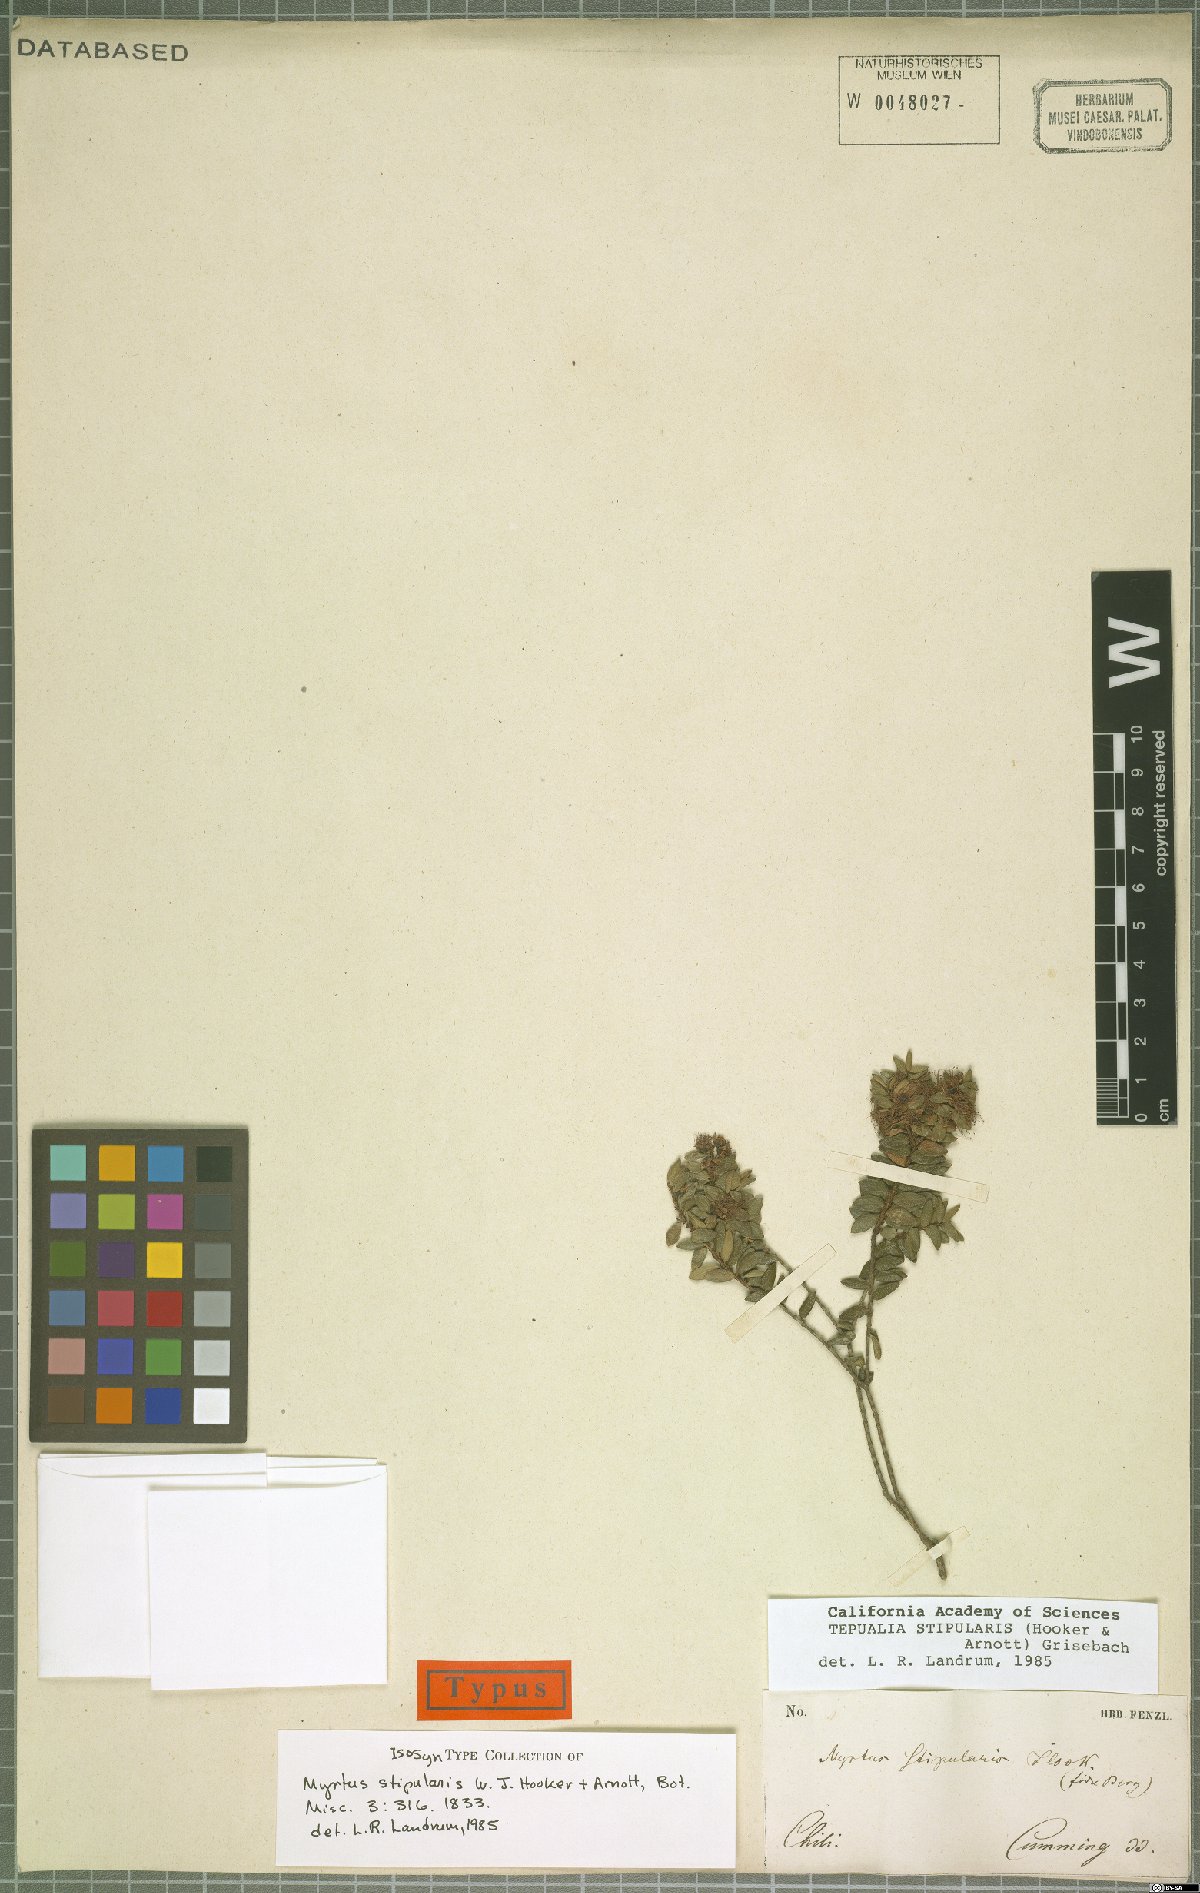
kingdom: Plantae
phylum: Tracheophyta
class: Magnoliopsida
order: Myrtales
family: Myrtaceae
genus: Tepualia
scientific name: Tepualia stipularis
